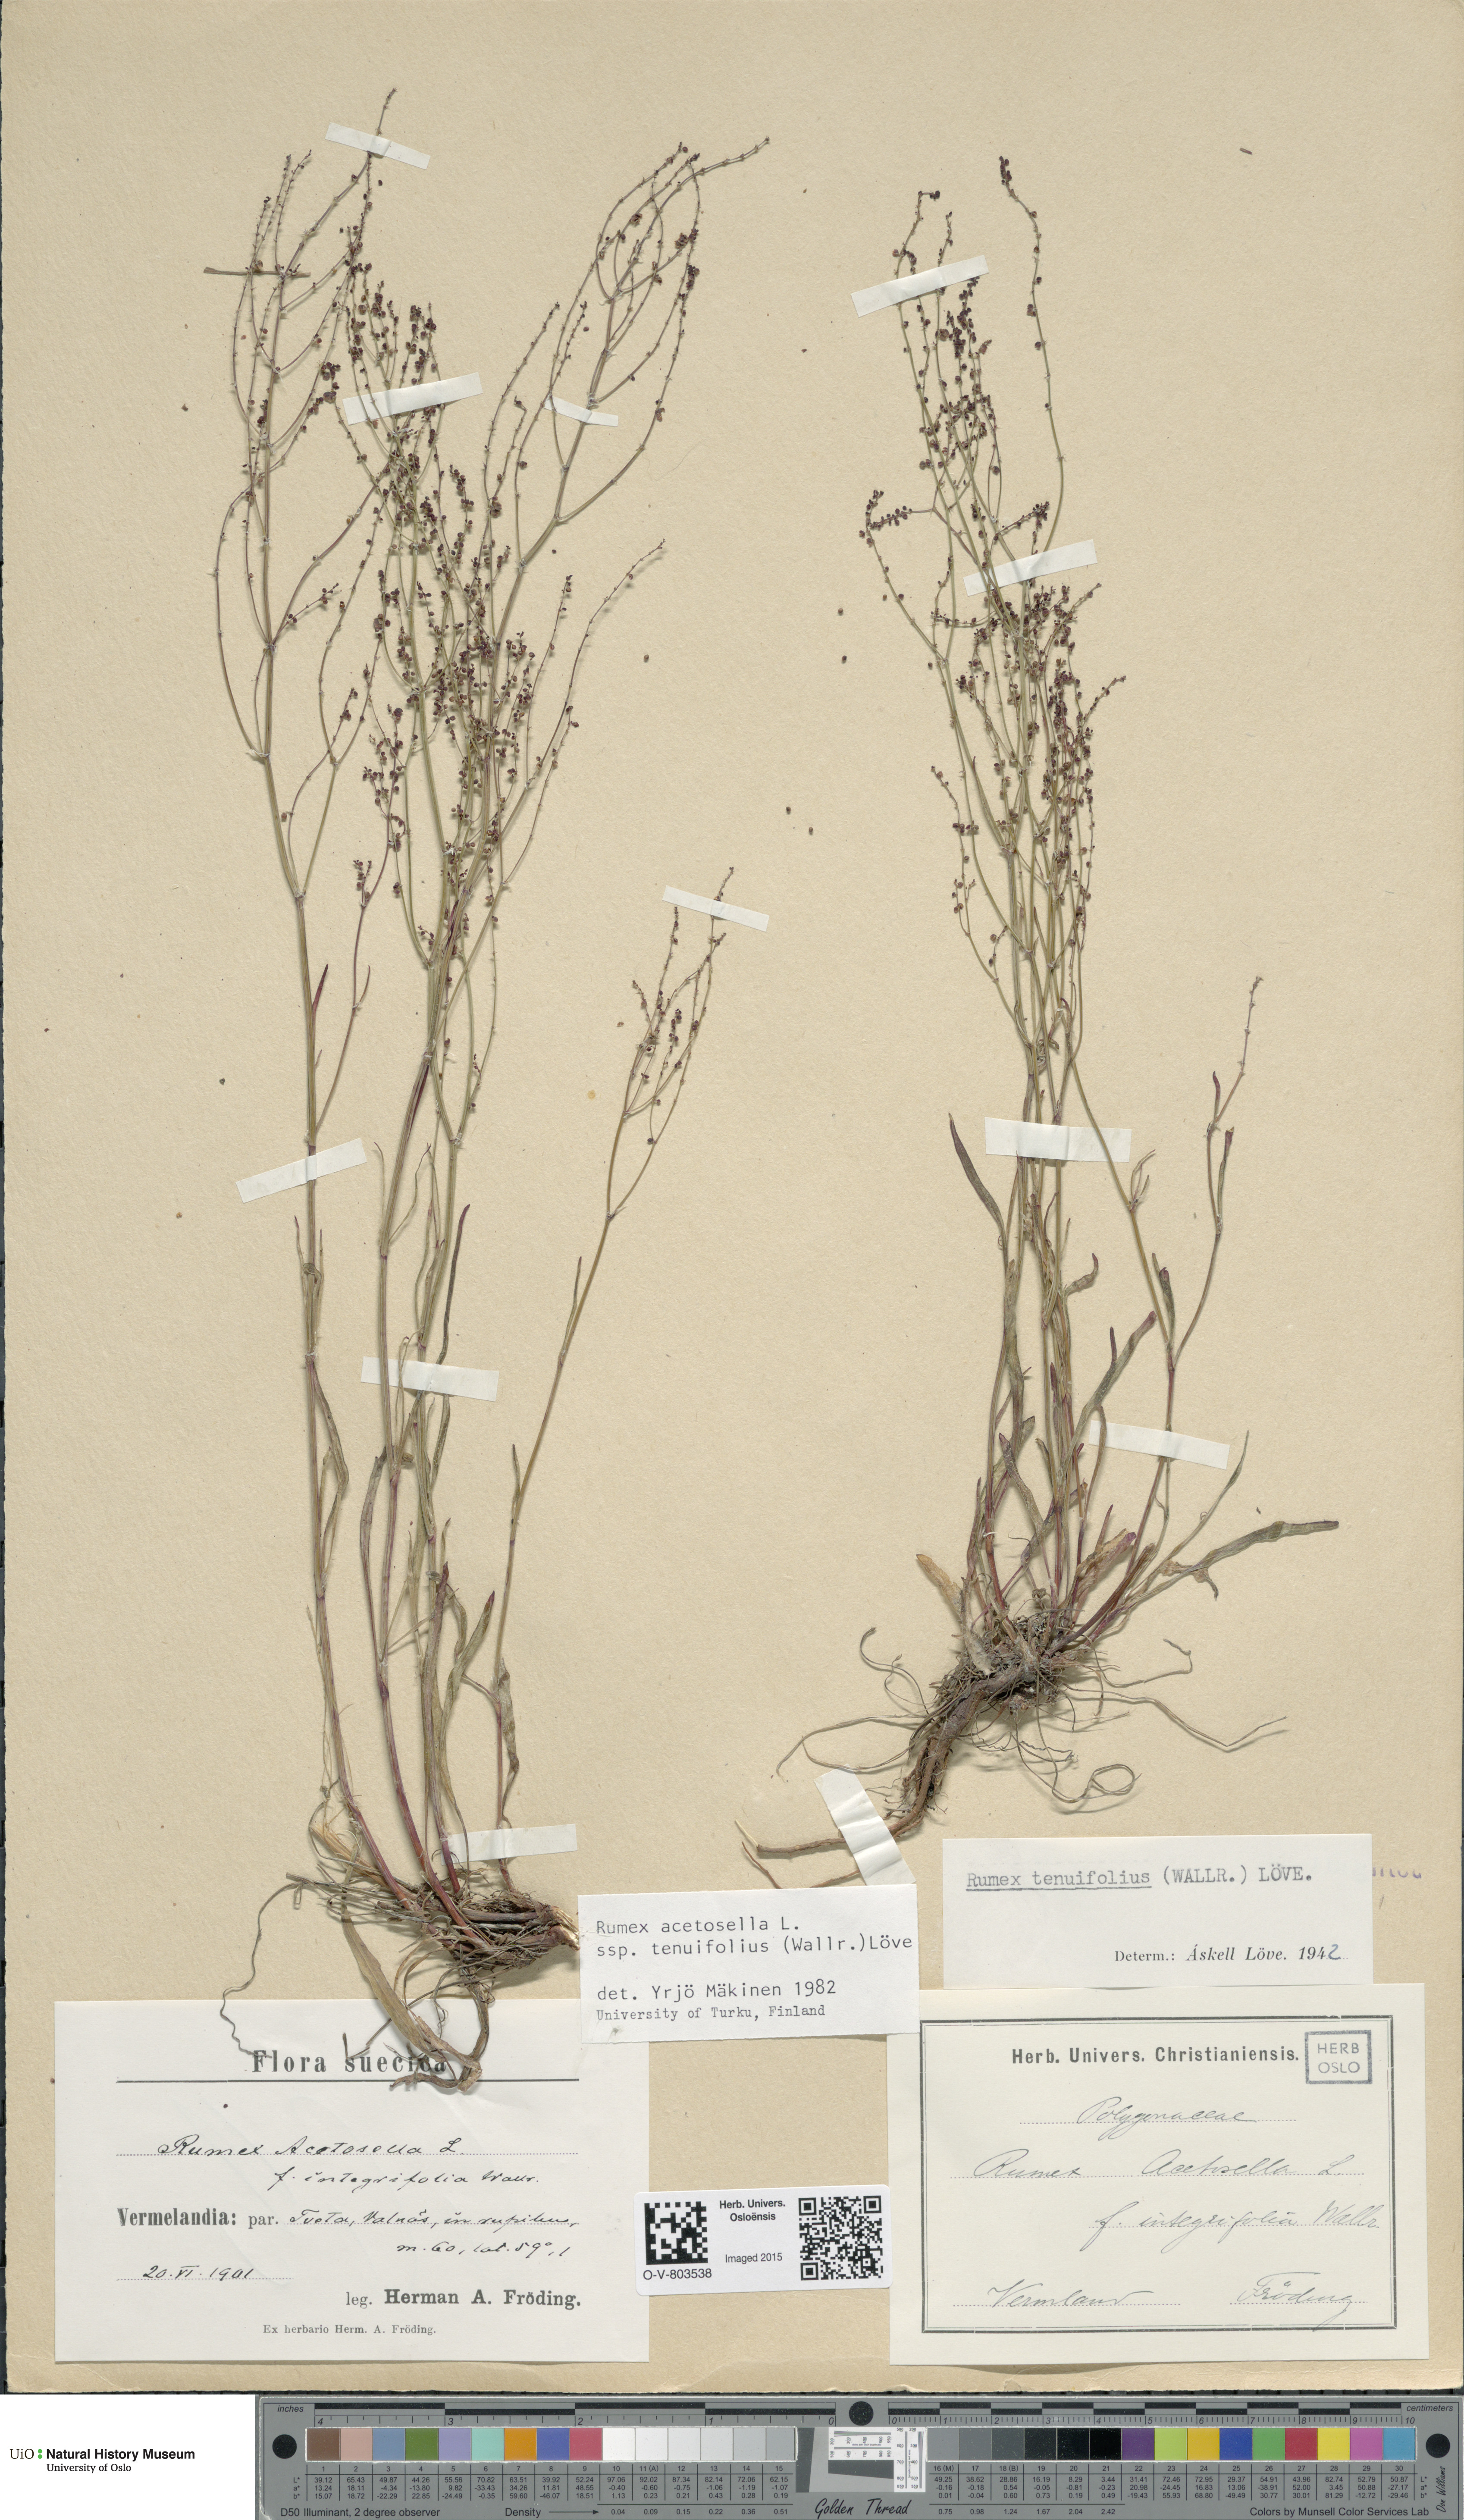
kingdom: Plantae
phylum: Tracheophyta
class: Magnoliopsida
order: Caryophyllales
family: Polygonaceae
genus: Rumex
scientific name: Rumex acetosella
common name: Common sheep sorrel
